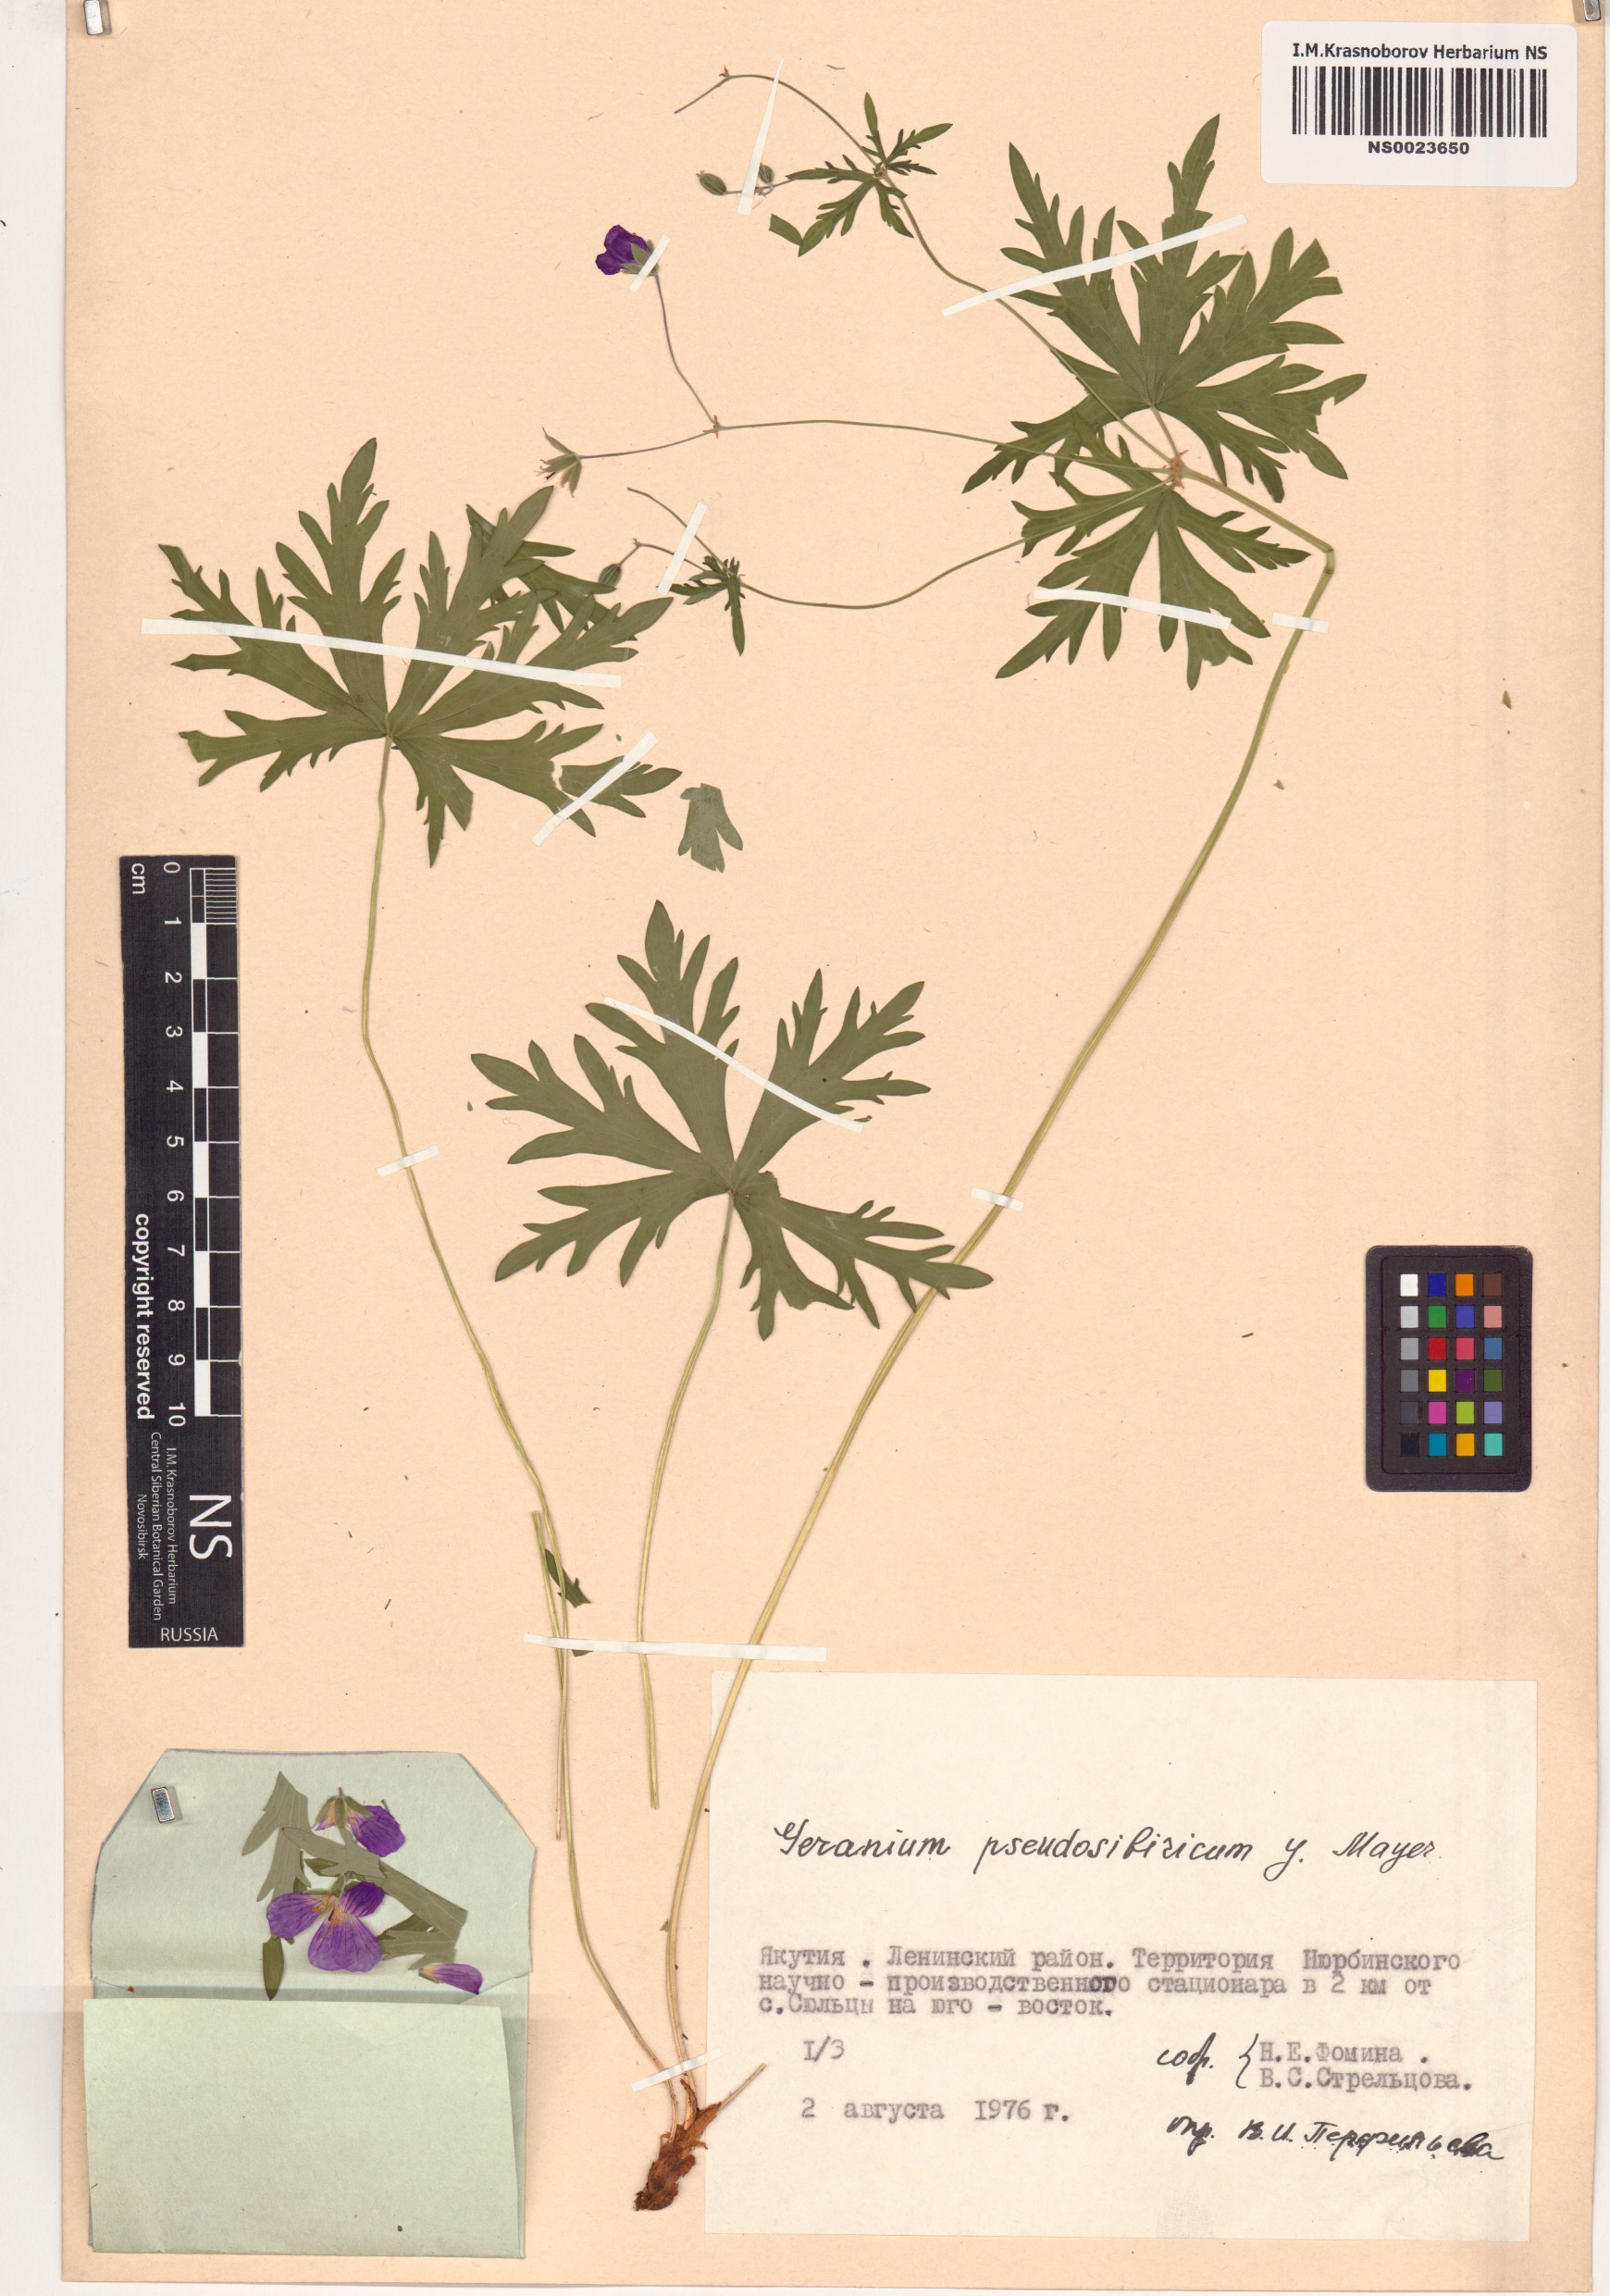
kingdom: Plantae
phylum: Tracheophyta
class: Magnoliopsida
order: Geraniales
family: Geraniaceae
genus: Geranium
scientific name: Geranium pseudosibiricum
